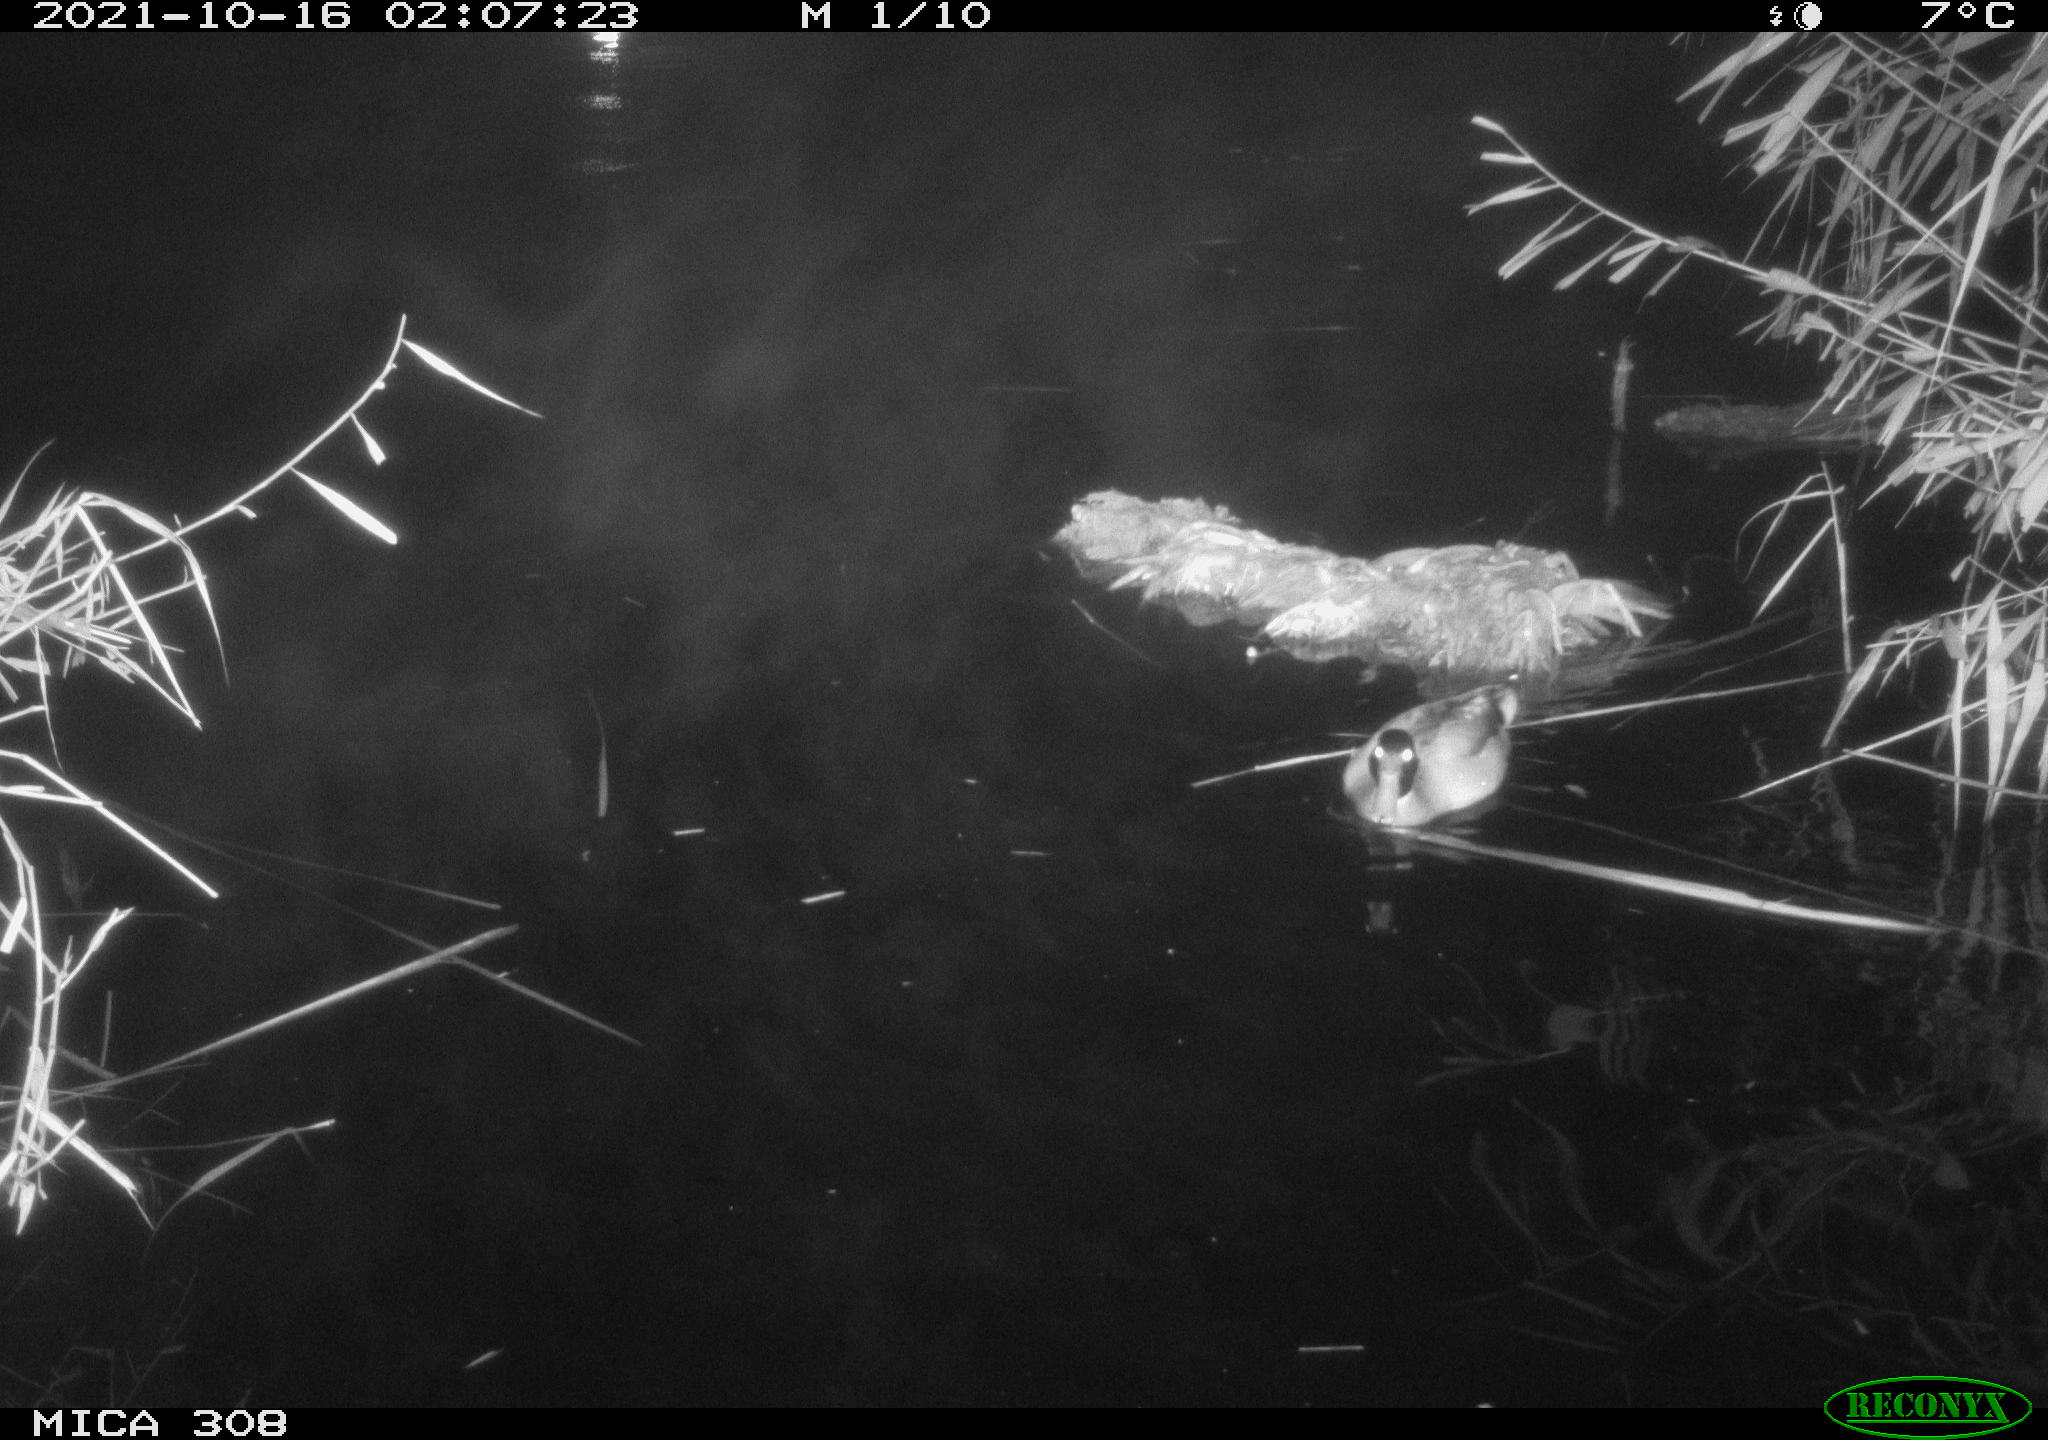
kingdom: Animalia
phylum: Chordata
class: Aves
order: Anseriformes
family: Anatidae
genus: Anas
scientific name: Anas platyrhynchos
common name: Mallard
